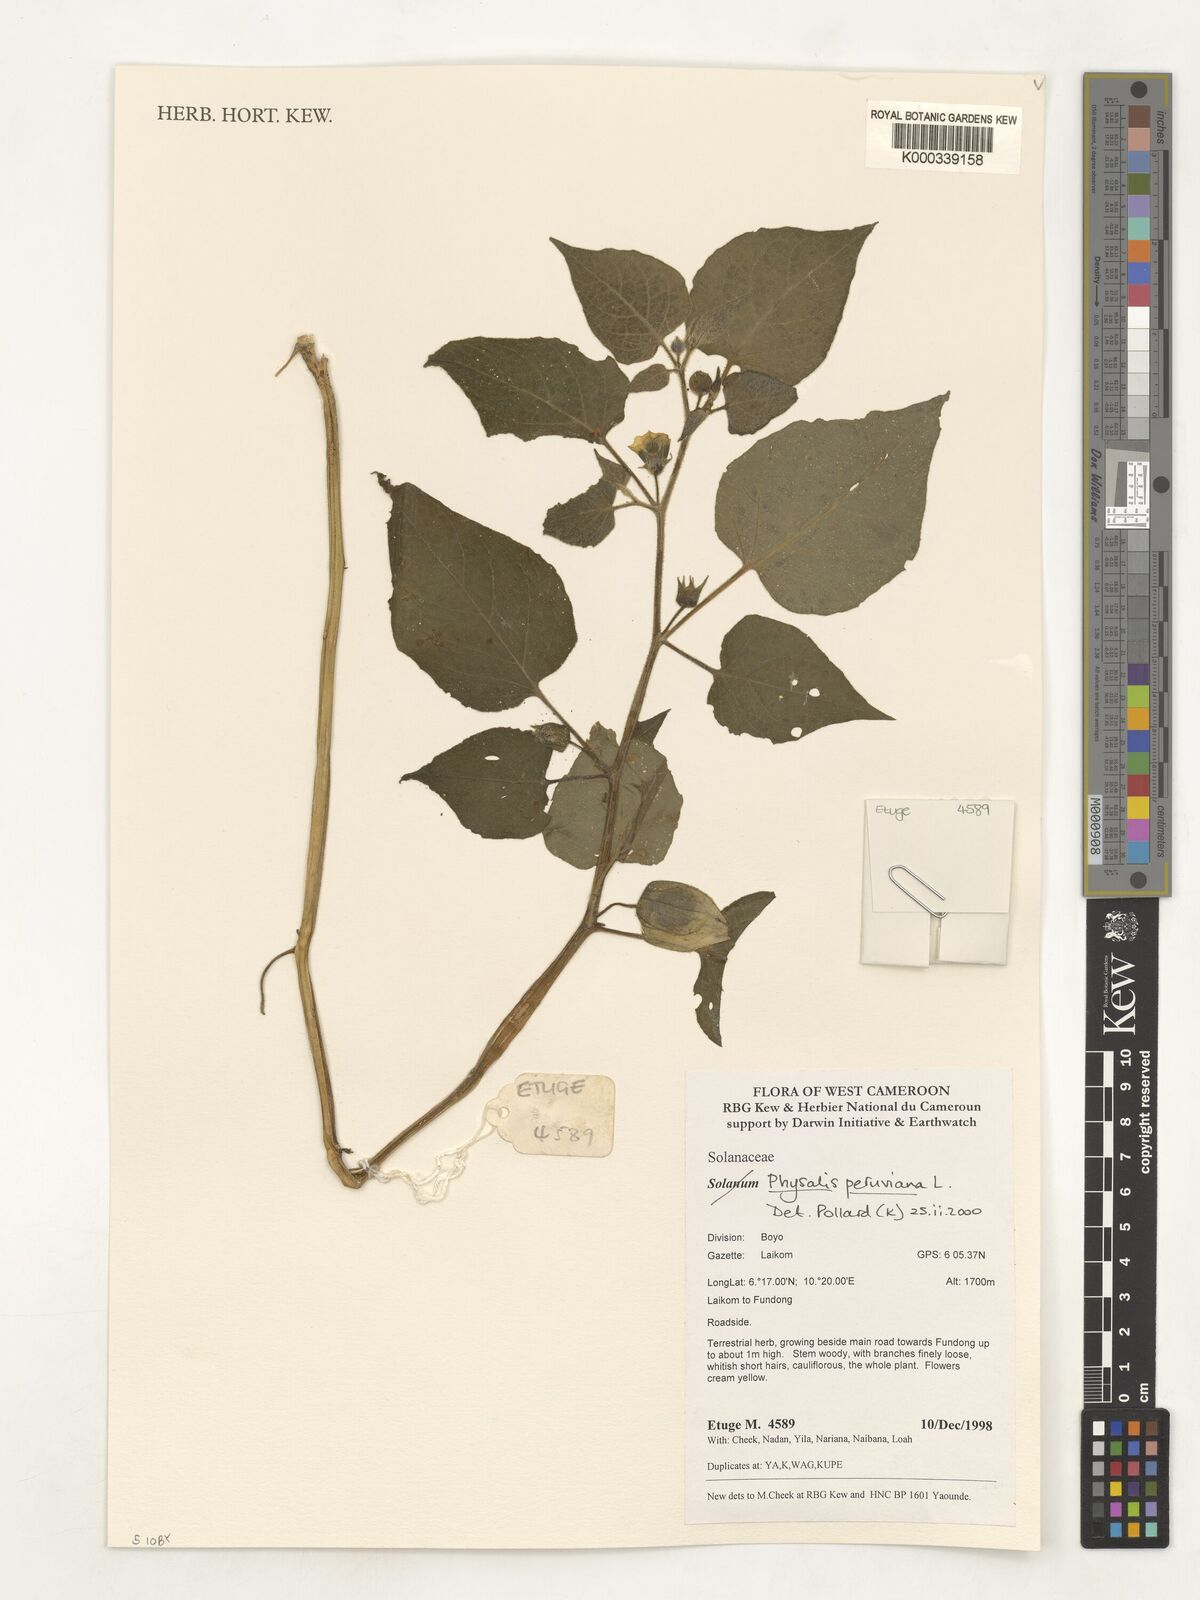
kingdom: Plantae
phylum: Tracheophyta
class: Magnoliopsida
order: Solanales
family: Solanaceae
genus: Physalis
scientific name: Physalis peruviana
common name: Cape-gooseberry
